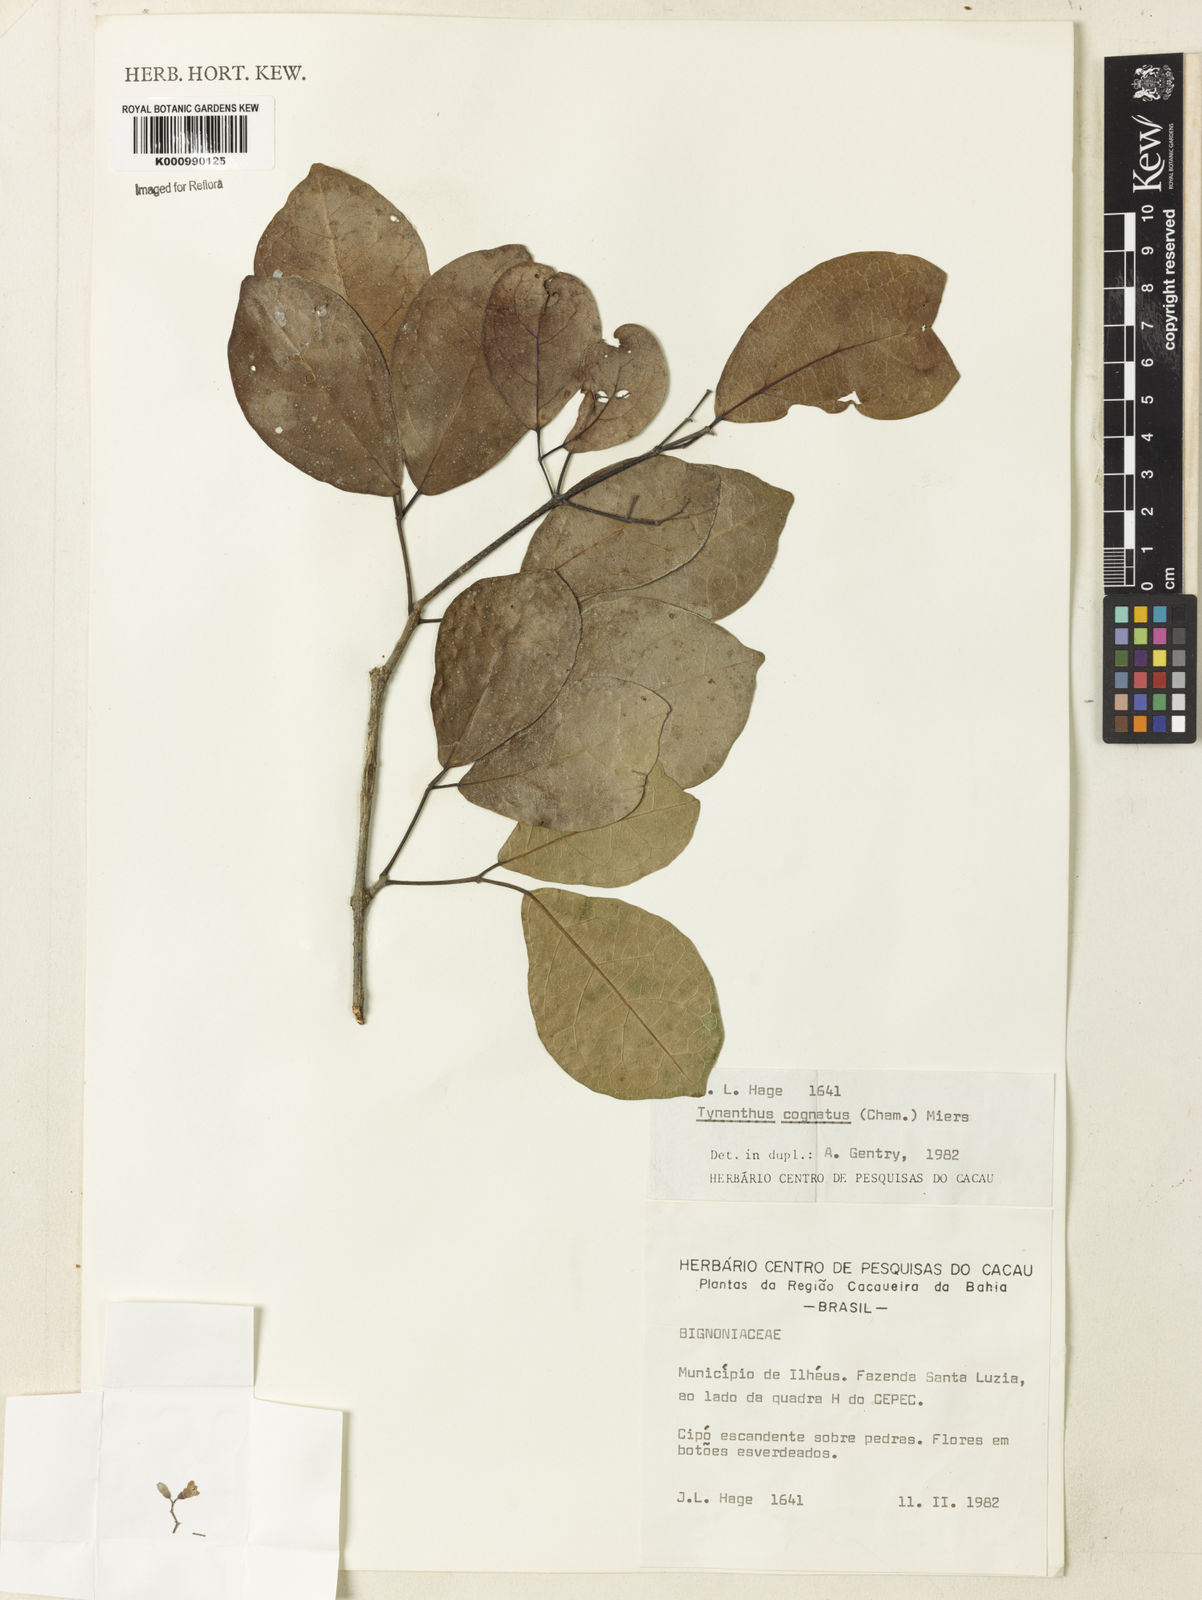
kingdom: Plantae
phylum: Tracheophyta
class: Magnoliopsida
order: Lamiales
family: Bignoniaceae
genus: Tynanthus
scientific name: Tynanthus cognatus
